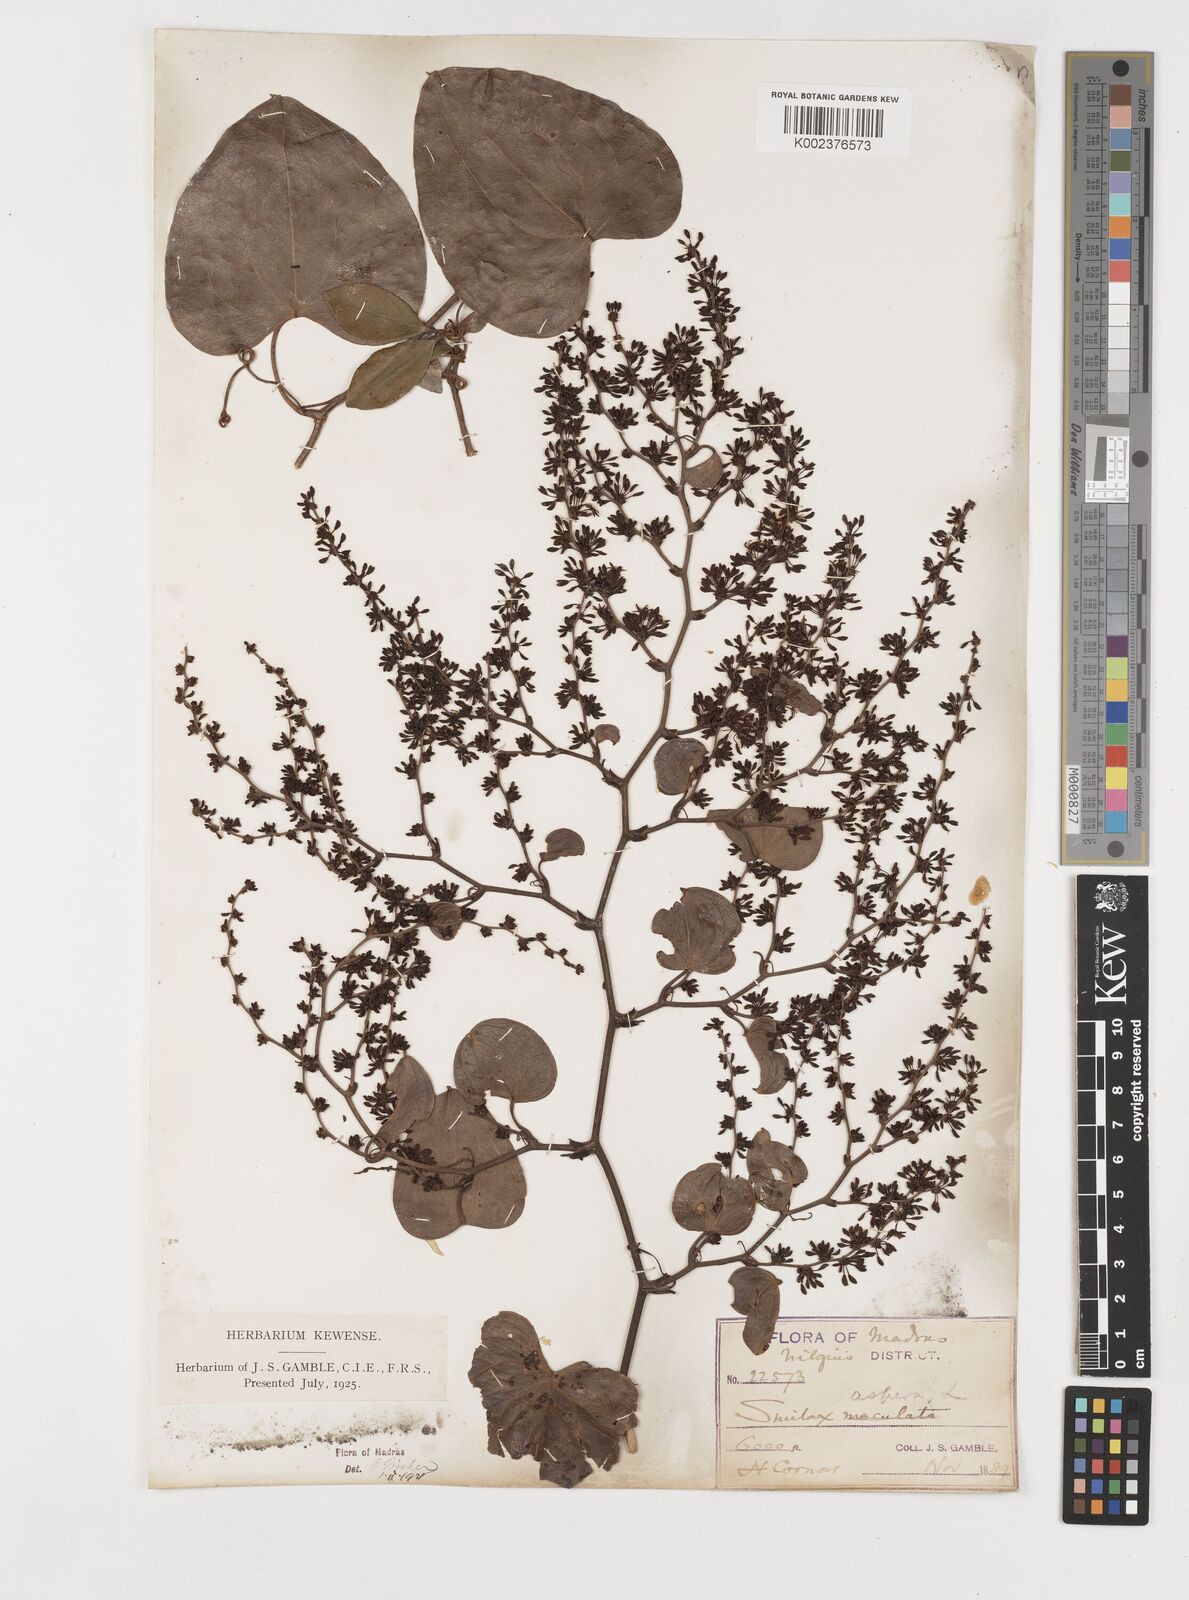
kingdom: Plantae
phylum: Tracheophyta
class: Liliopsida
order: Liliales
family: Smilacaceae
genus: Smilax
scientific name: Smilax aspera
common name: Common smilax
